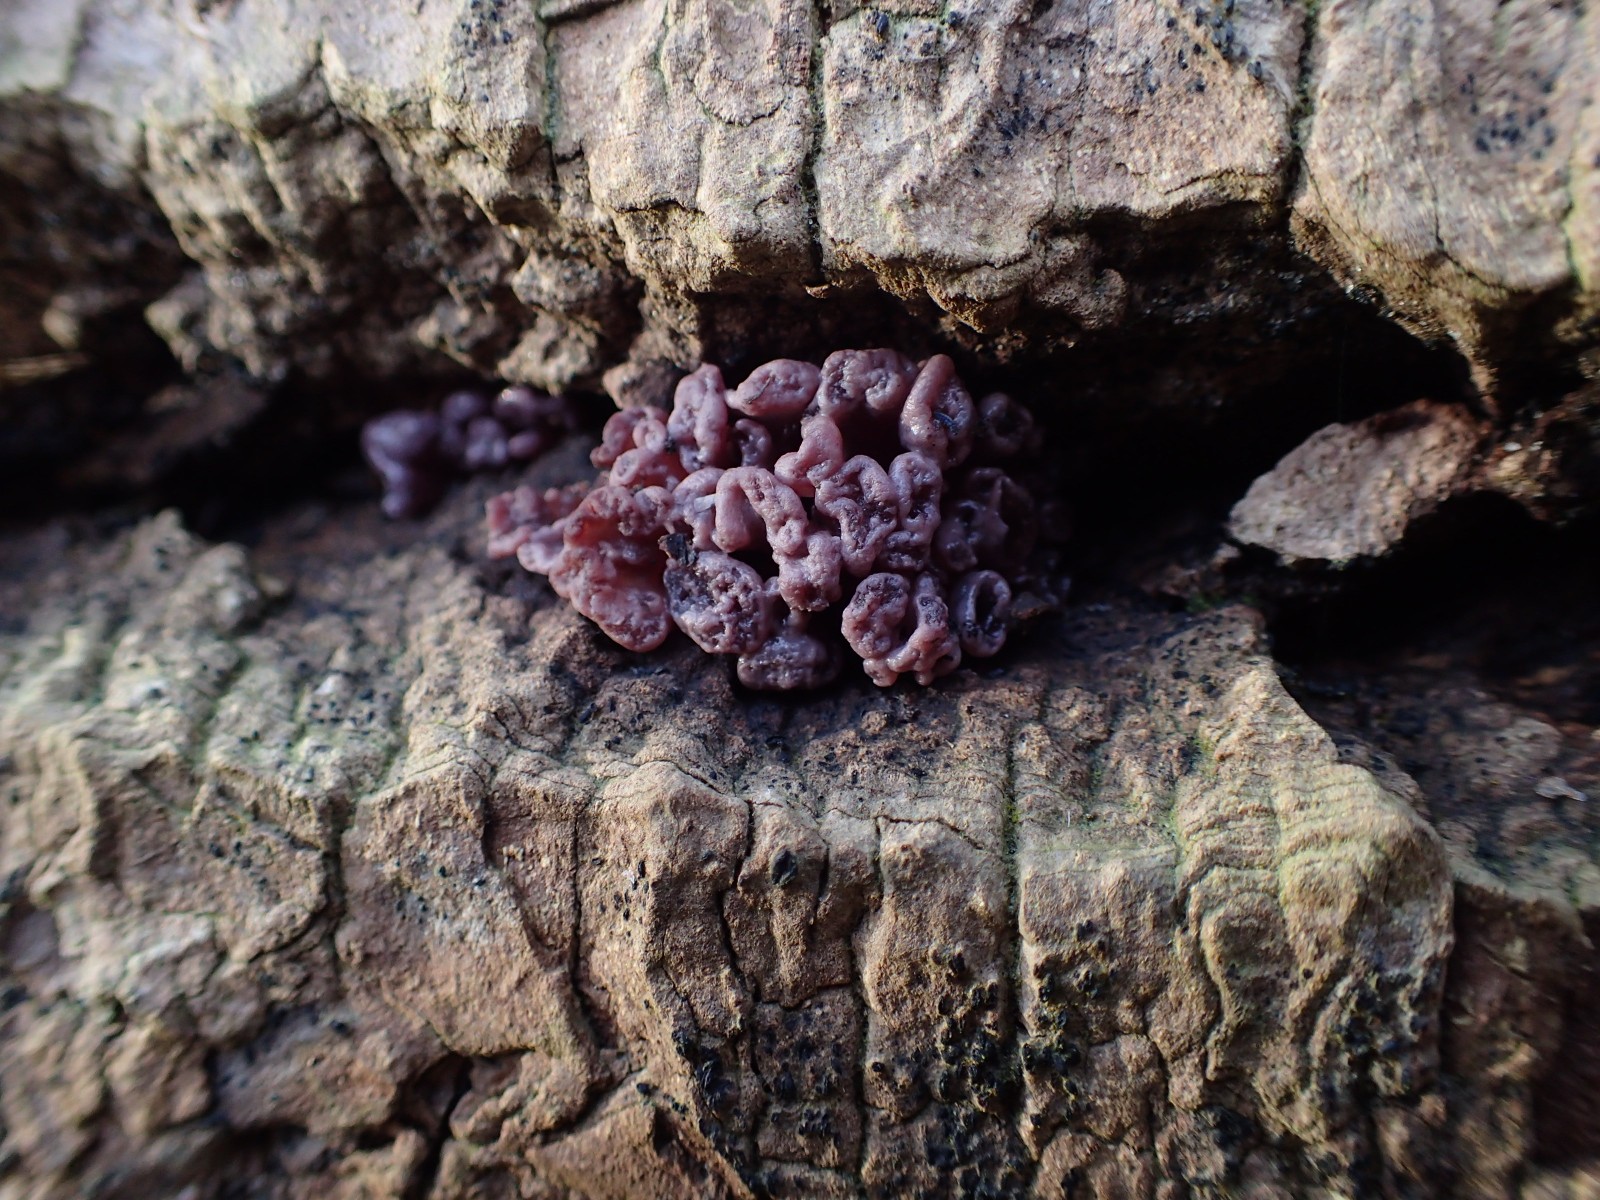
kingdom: Fungi
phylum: Ascomycota
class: Leotiomycetes
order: Helotiales
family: Gelatinodiscaceae
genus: Ascocoryne
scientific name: Ascocoryne sarcoides
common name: rødlilla sejskive
